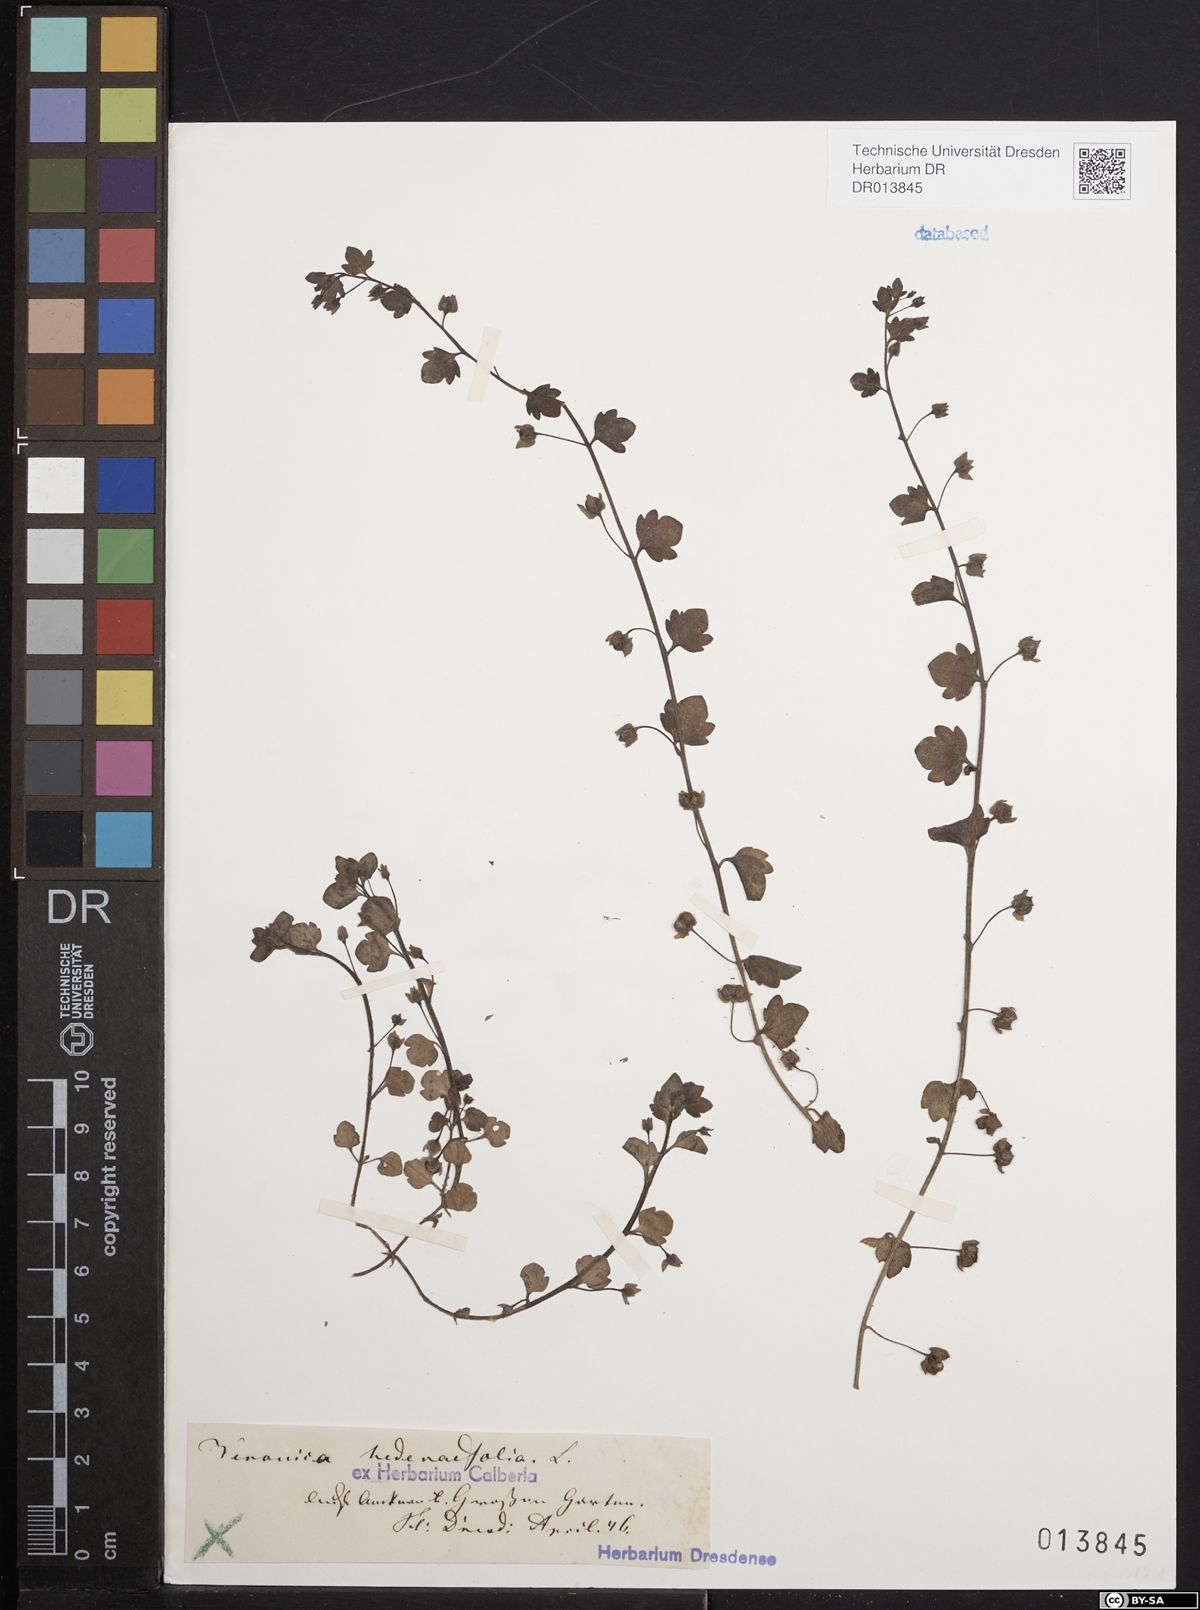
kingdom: Plantae
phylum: Tracheophyta
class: Magnoliopsida
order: Lamiales
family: Plantaginaceae
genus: Veronica
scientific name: Veronica hederifolia
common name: Ivy-leaved speedwell
